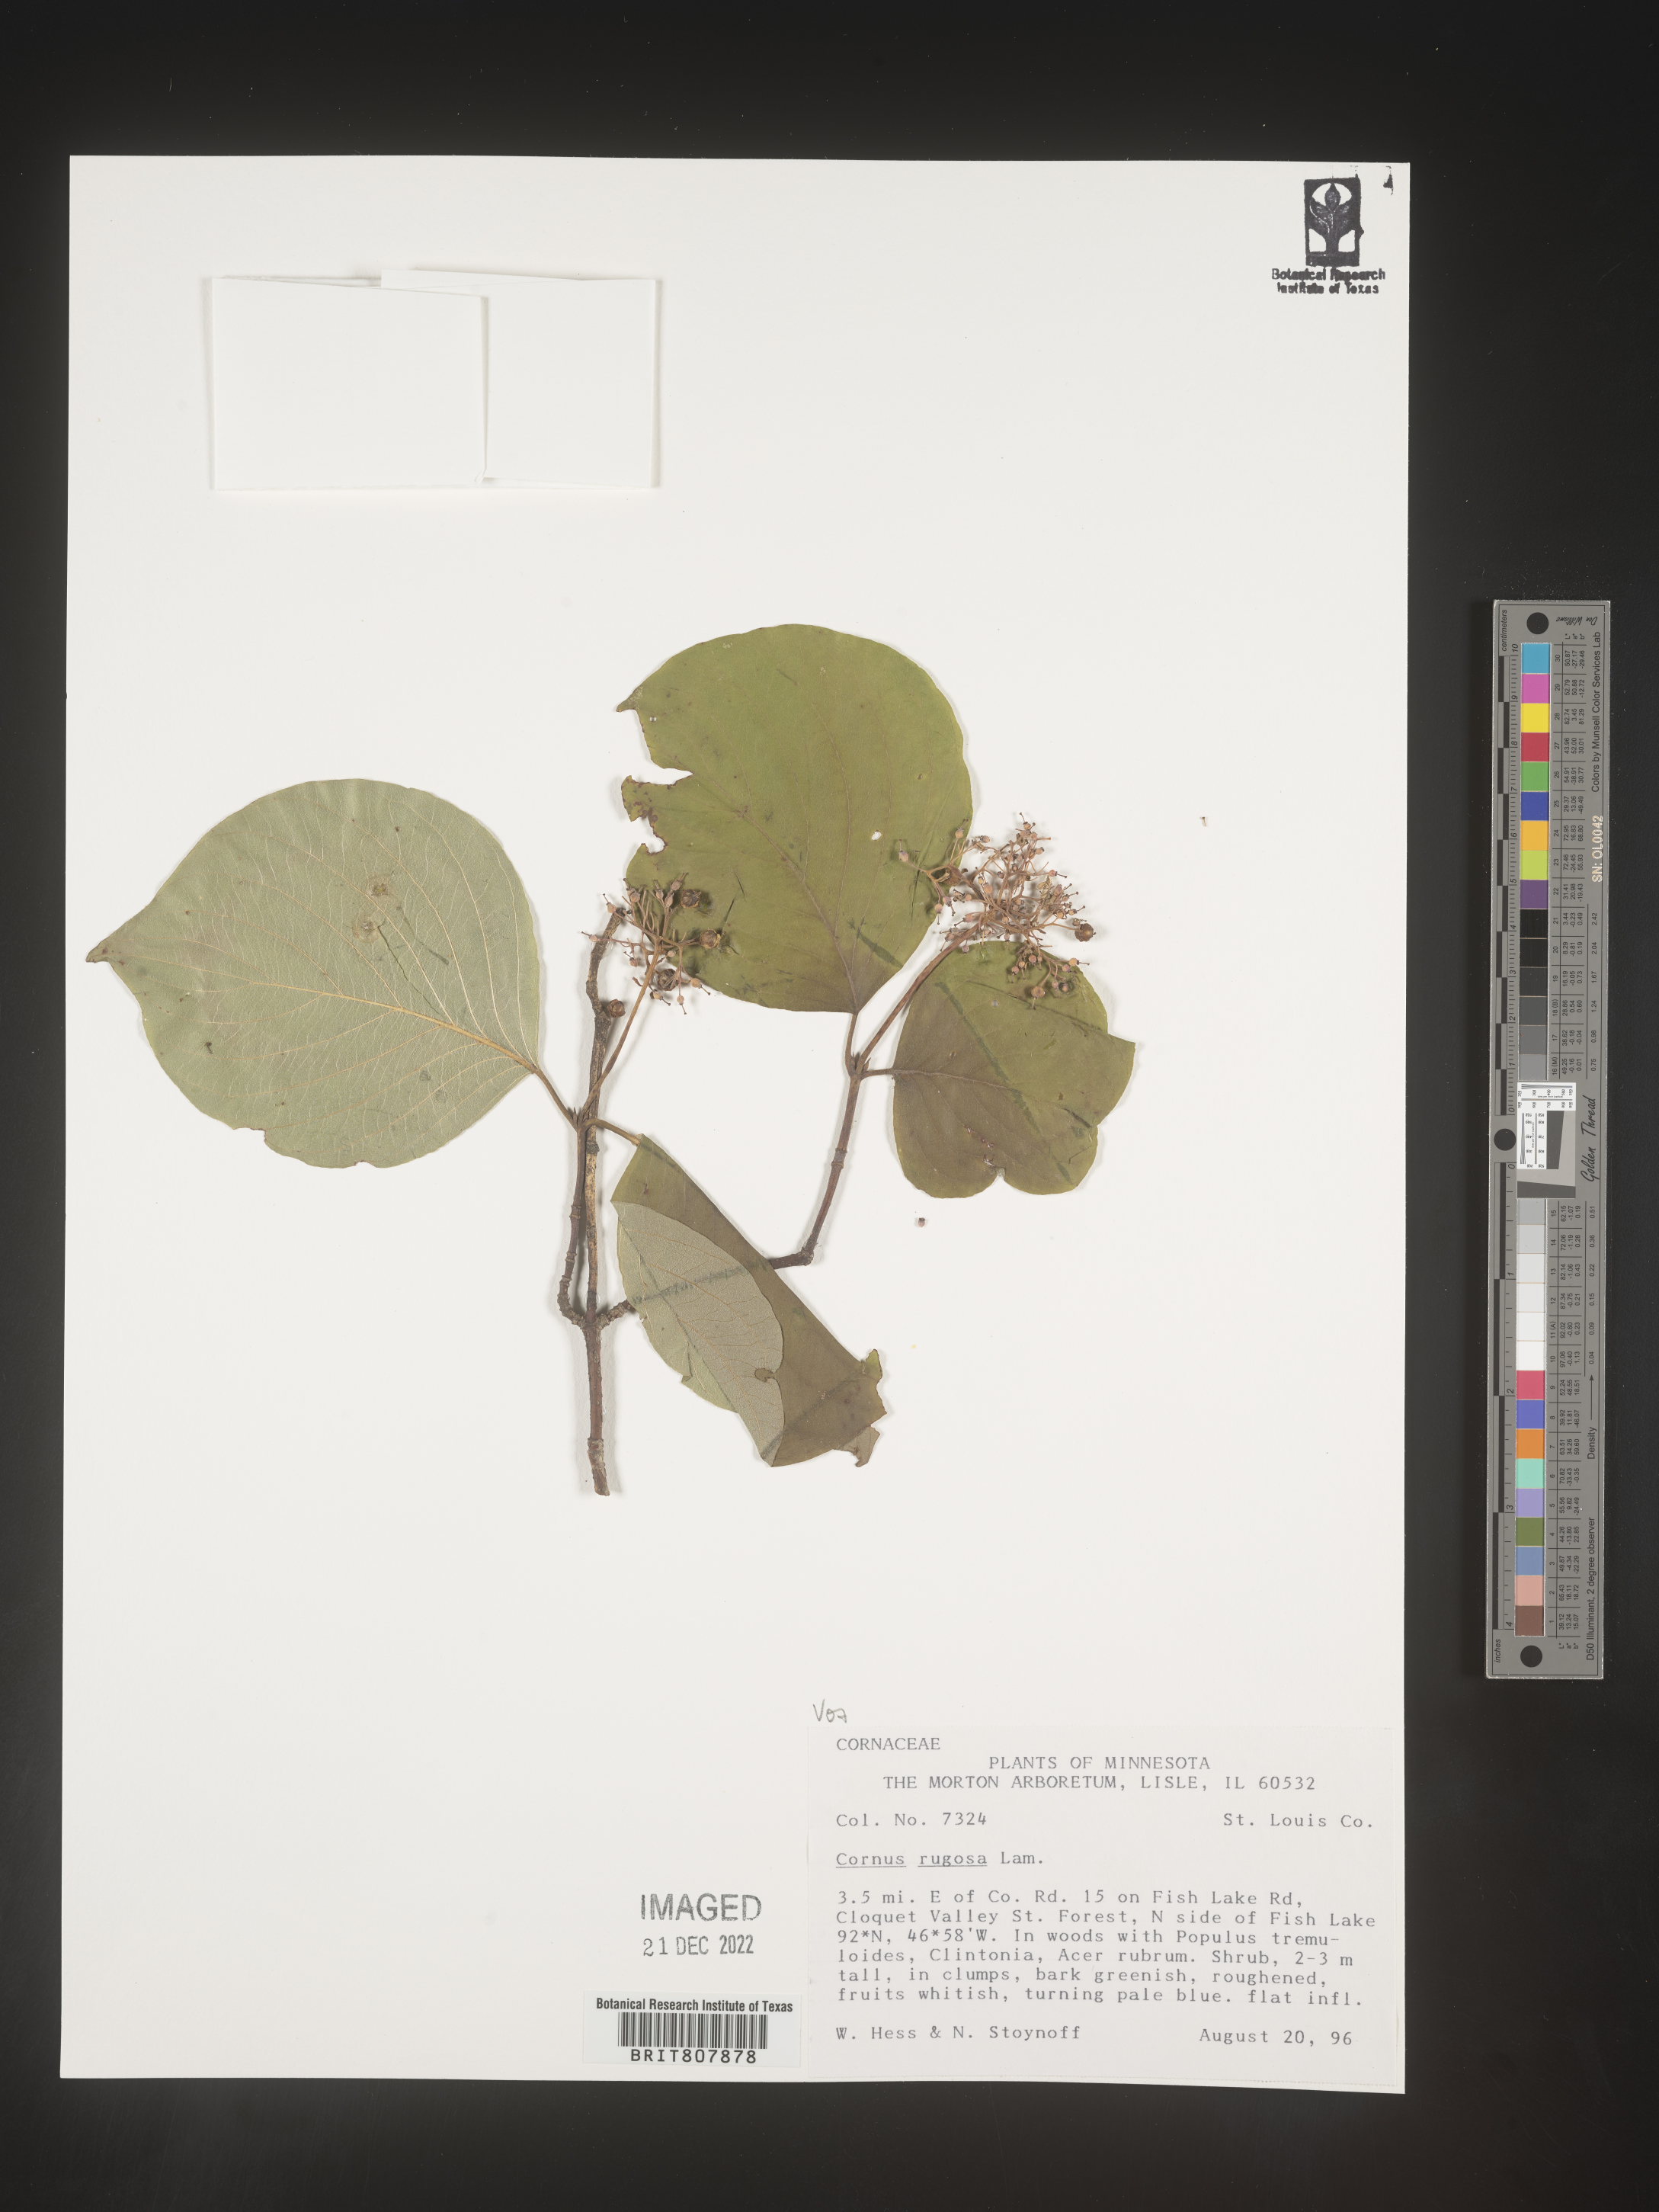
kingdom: Plantae
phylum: Tracheophyta
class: Magnoliopsida
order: Cornales
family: Cornaceae
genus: Cornus
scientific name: Cornus rugosa
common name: Round-leaf dogwood
